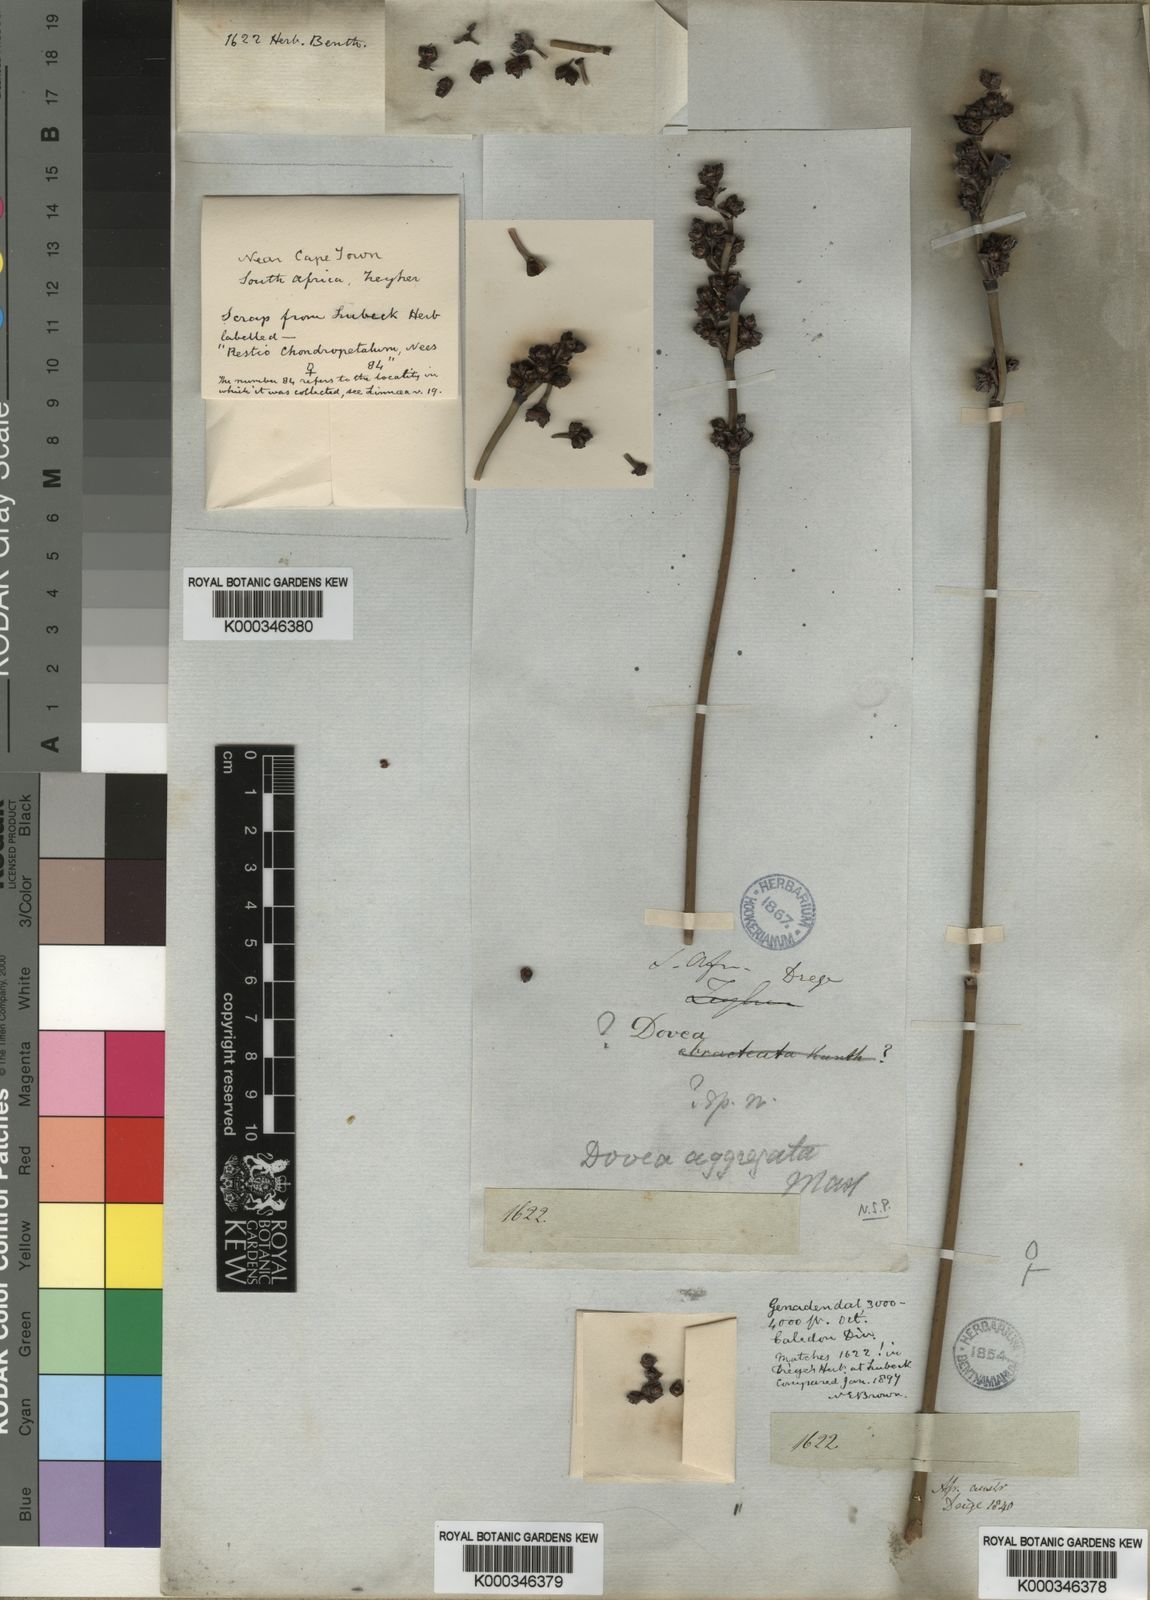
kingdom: Plantae
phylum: Tracheophyta
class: Liliopsida
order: Poales
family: Restionaceae
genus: Elegia
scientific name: Elegia aggregata
